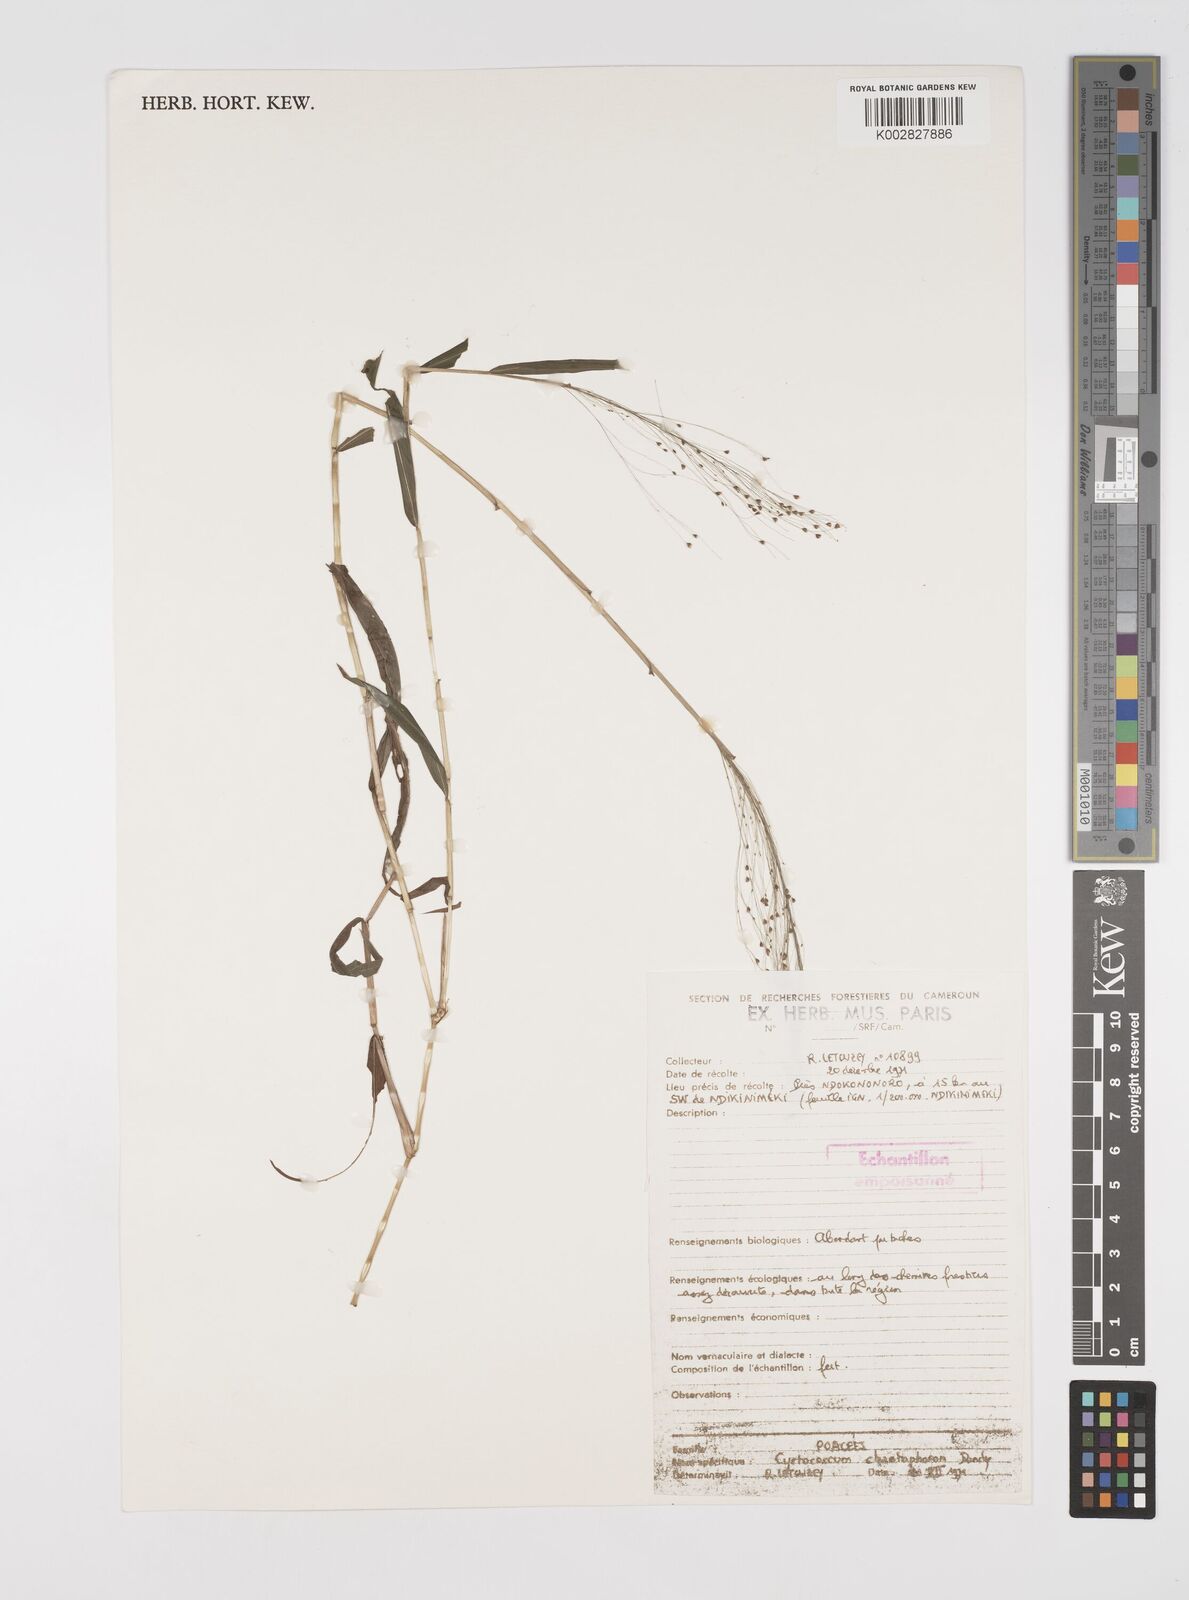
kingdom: Plantae
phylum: Tracheophyta
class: Liliopsida
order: Poales
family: Poaceae
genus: Cyrtococcum
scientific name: Cyrtococcum chaetophoron
